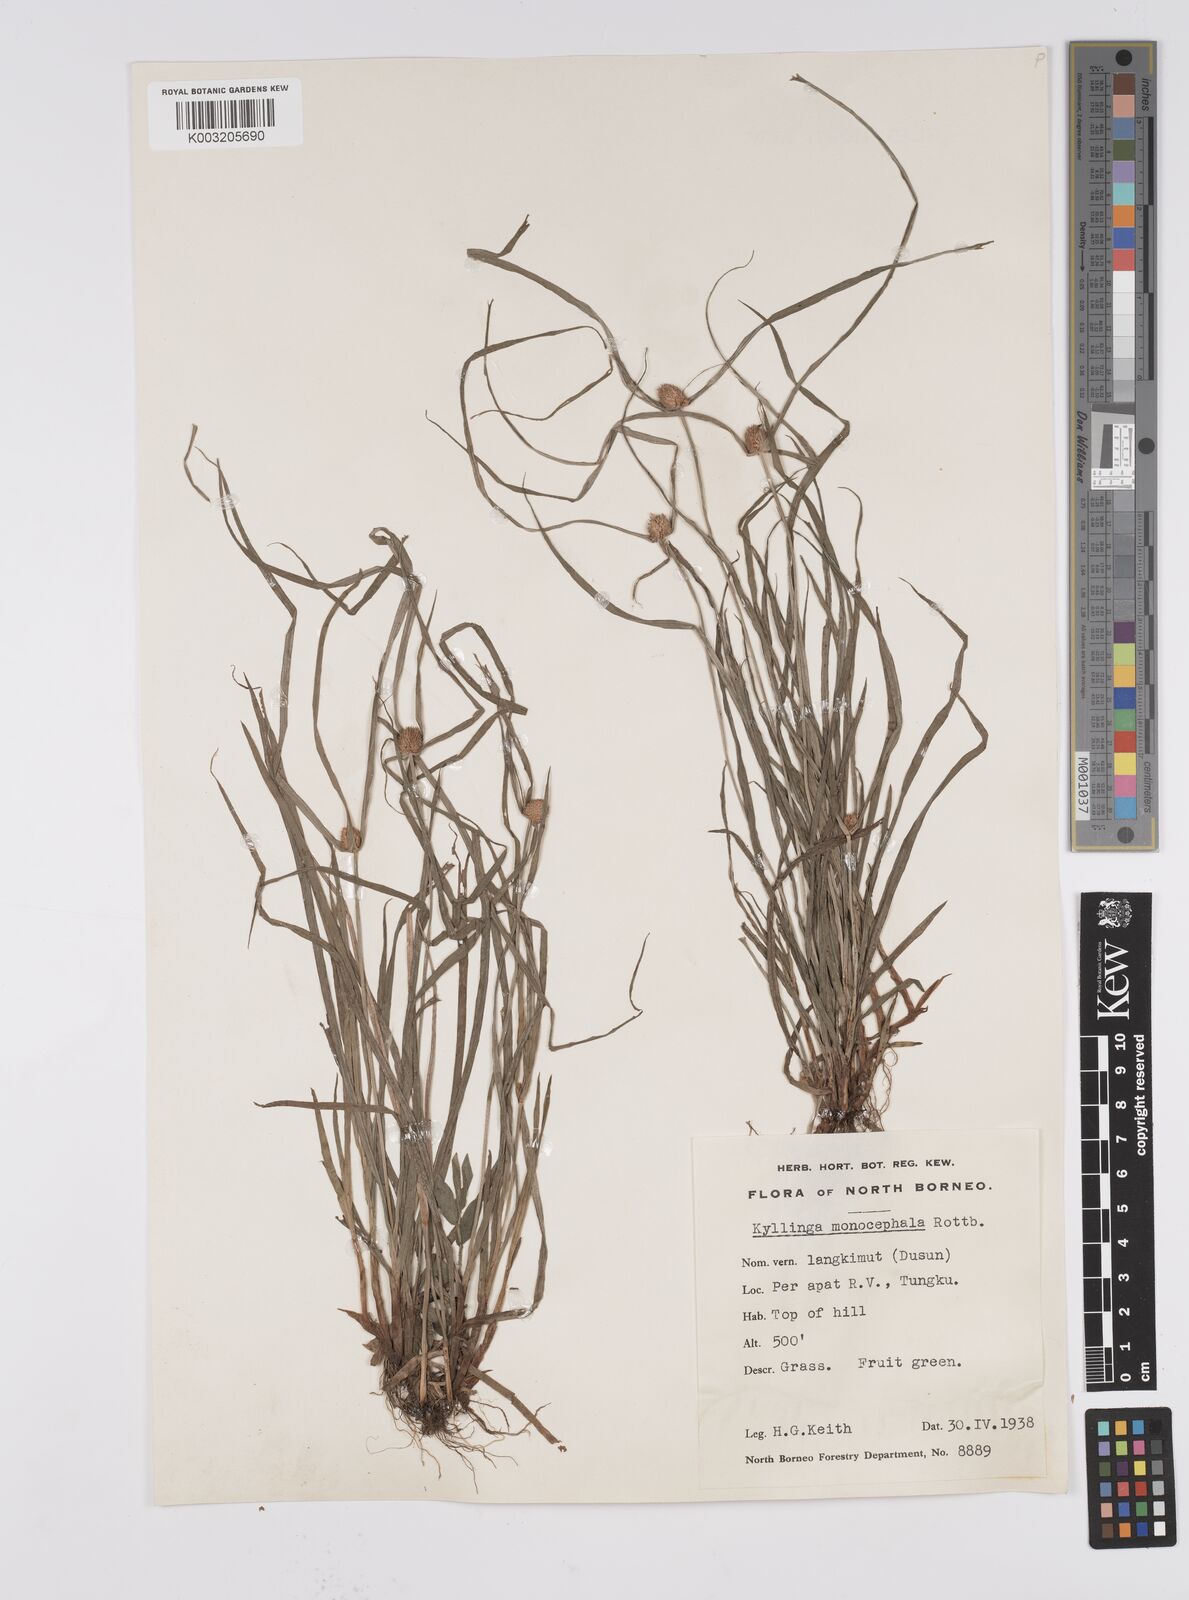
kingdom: Plantae
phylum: Tracheophyta
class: Liliopsida
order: Poales
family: Cyperaceae
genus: Cyperus
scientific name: Cyperus nemoralis
